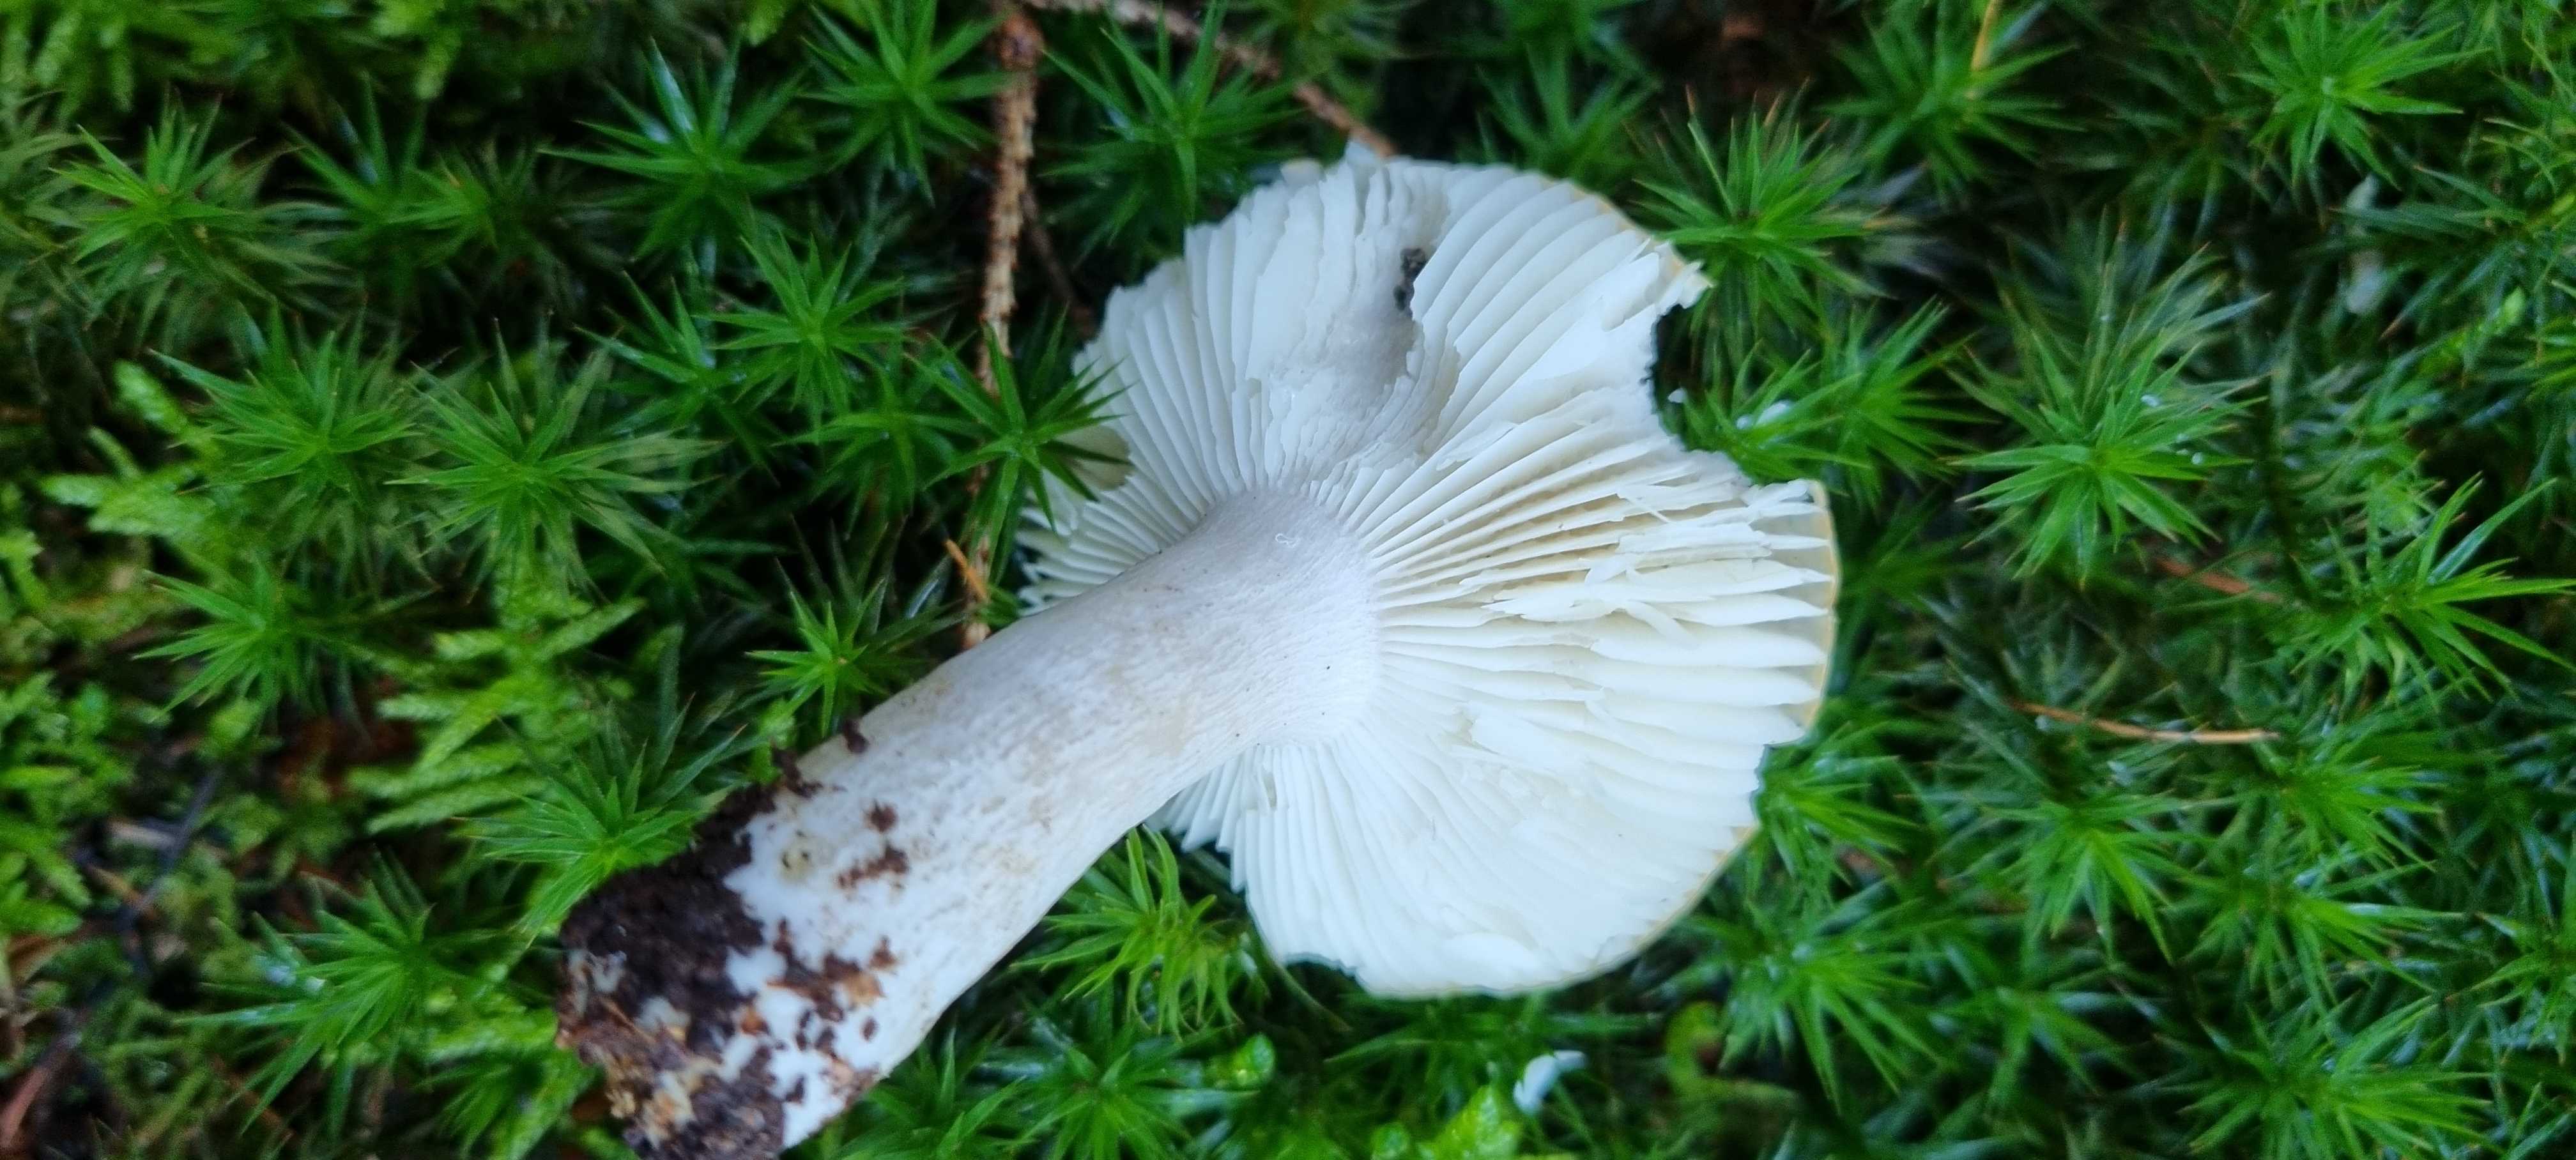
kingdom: Fungi
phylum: Basidiomycota
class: Agaricomycetes
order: Russulales
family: Russulaceae
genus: Russula
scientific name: Russula ochroleuca
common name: okkergul skørhat
